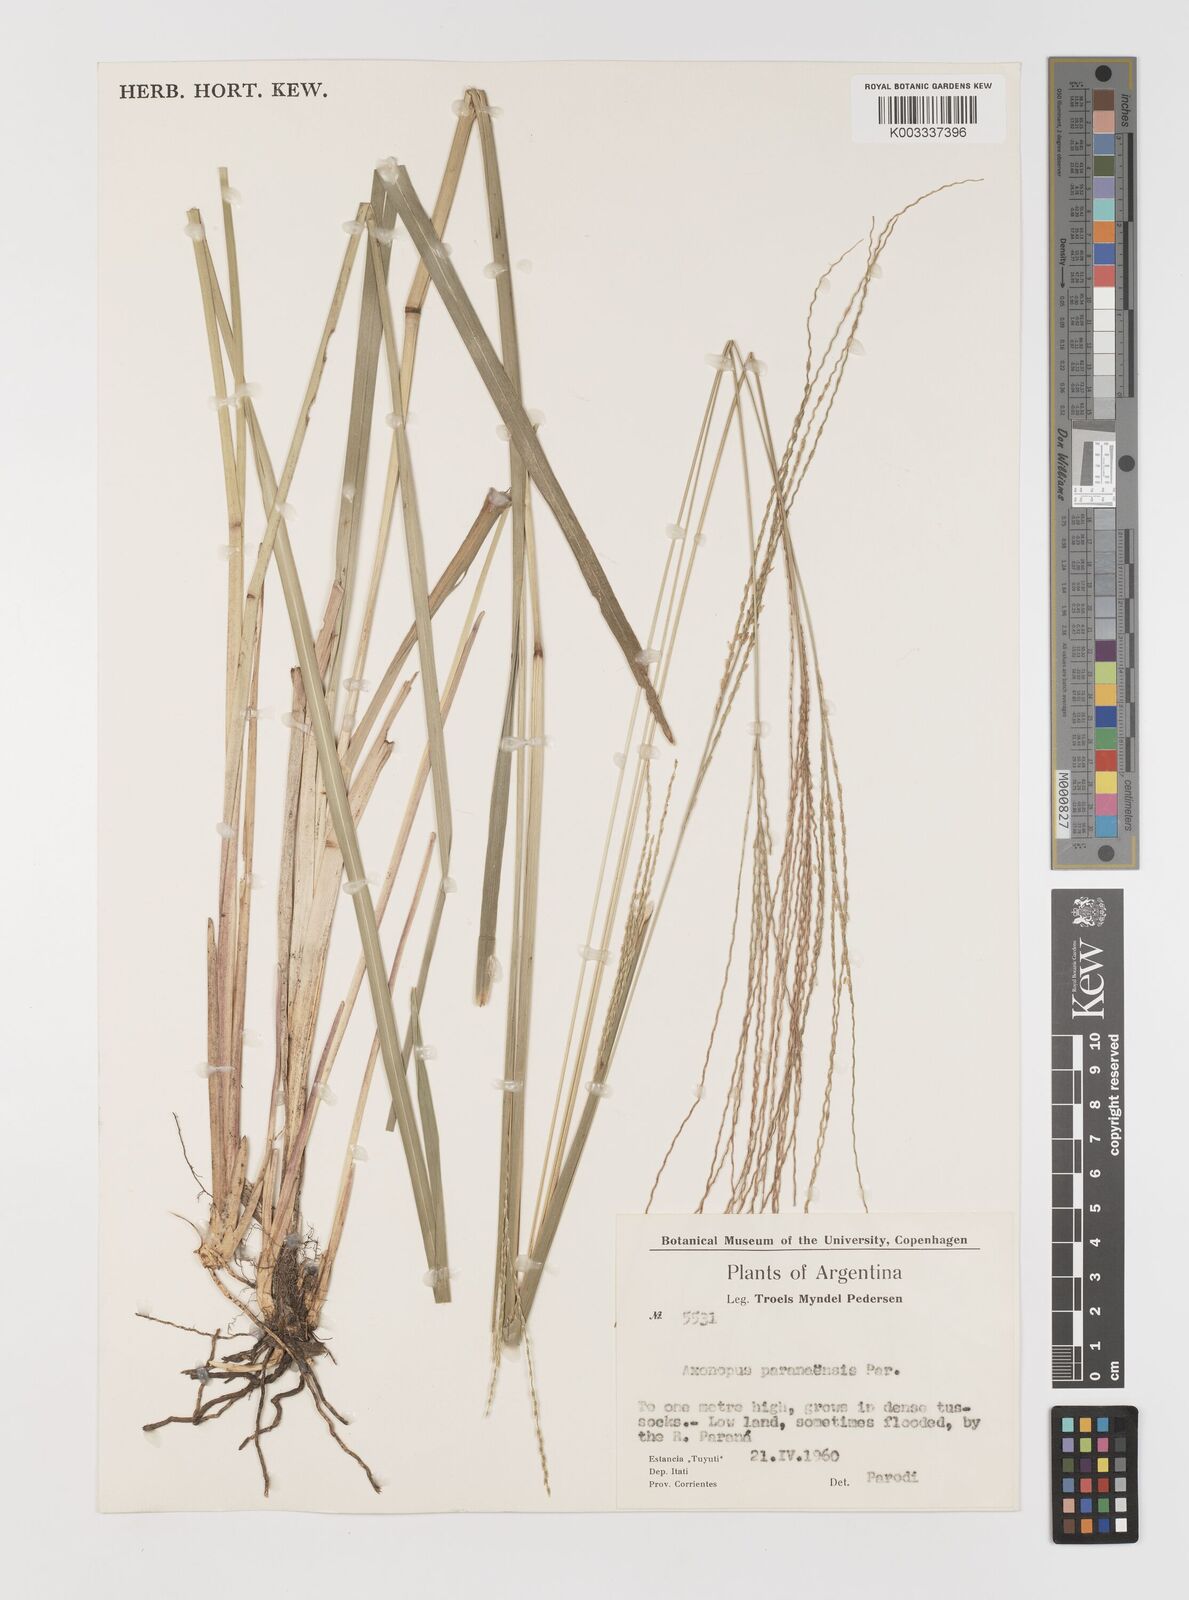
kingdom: Plantae
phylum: Tracheophyta
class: Liliopsida
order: Poales
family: Poaceae
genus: Axonopus
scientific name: Axonopus leptostachyus
